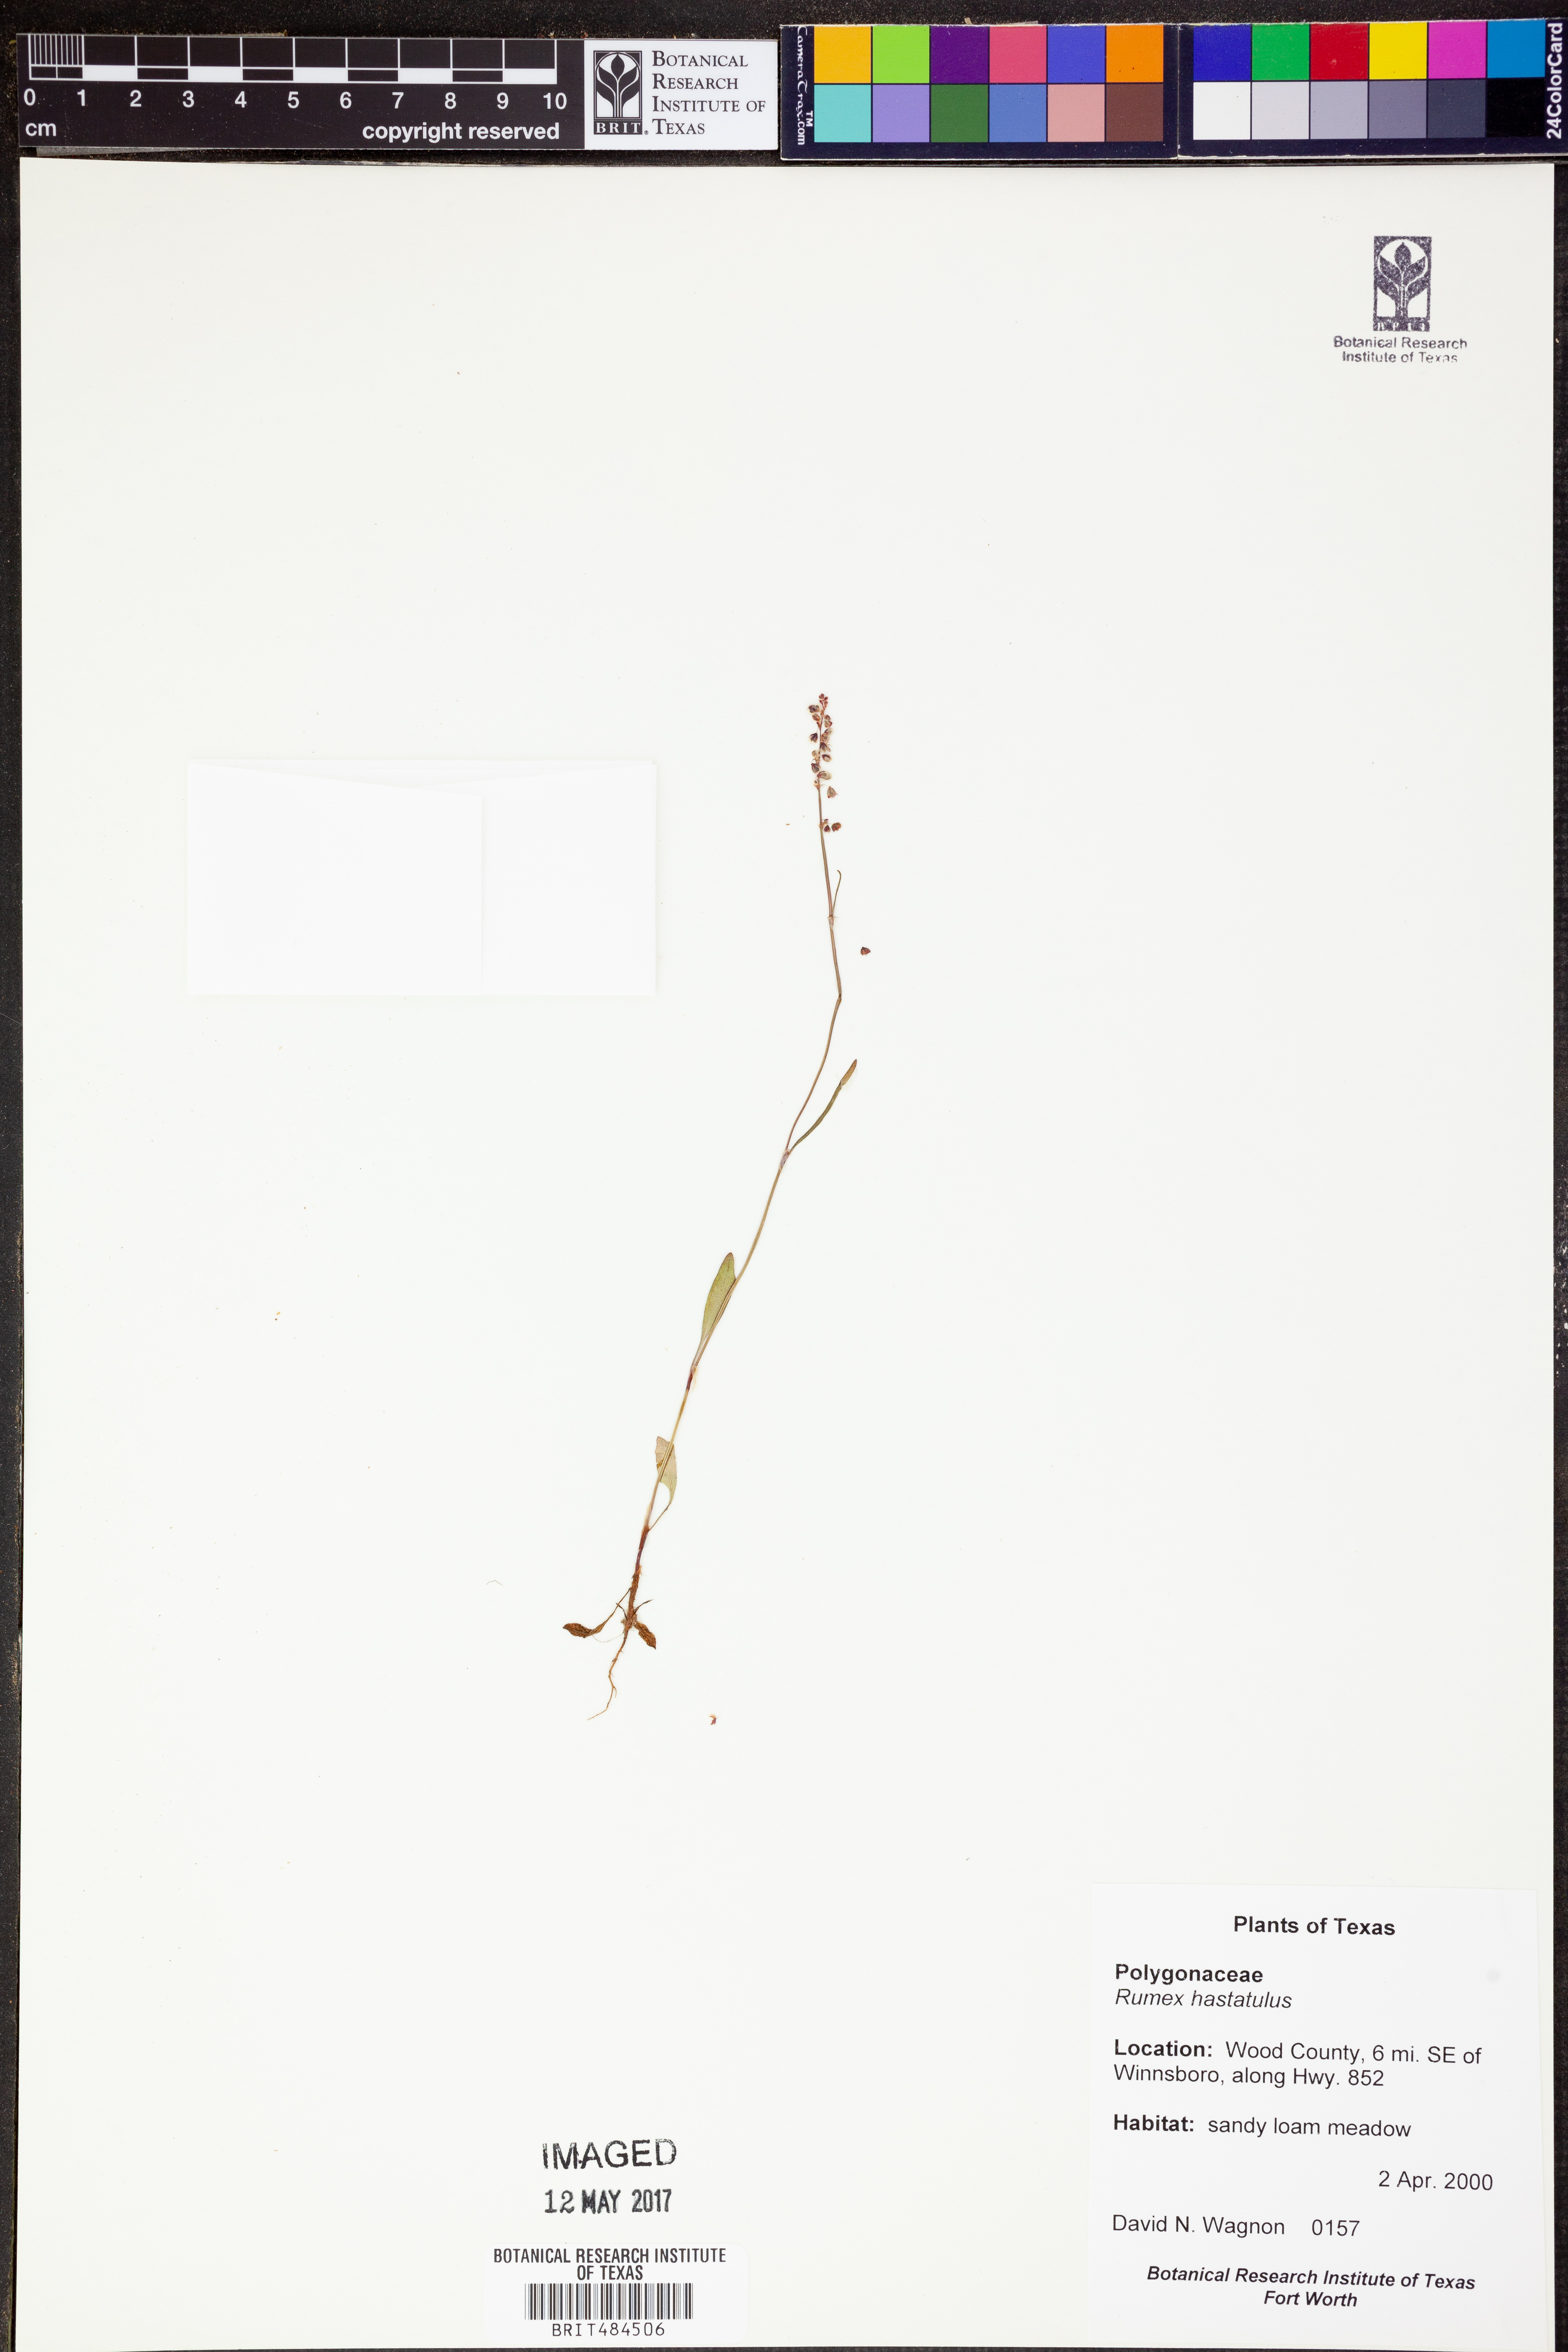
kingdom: Plantae
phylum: Tracheophyta
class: Magnoliopsida
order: Caryophyllales
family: Polygonaceae
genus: Rumex
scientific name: Rumex hastatulus
